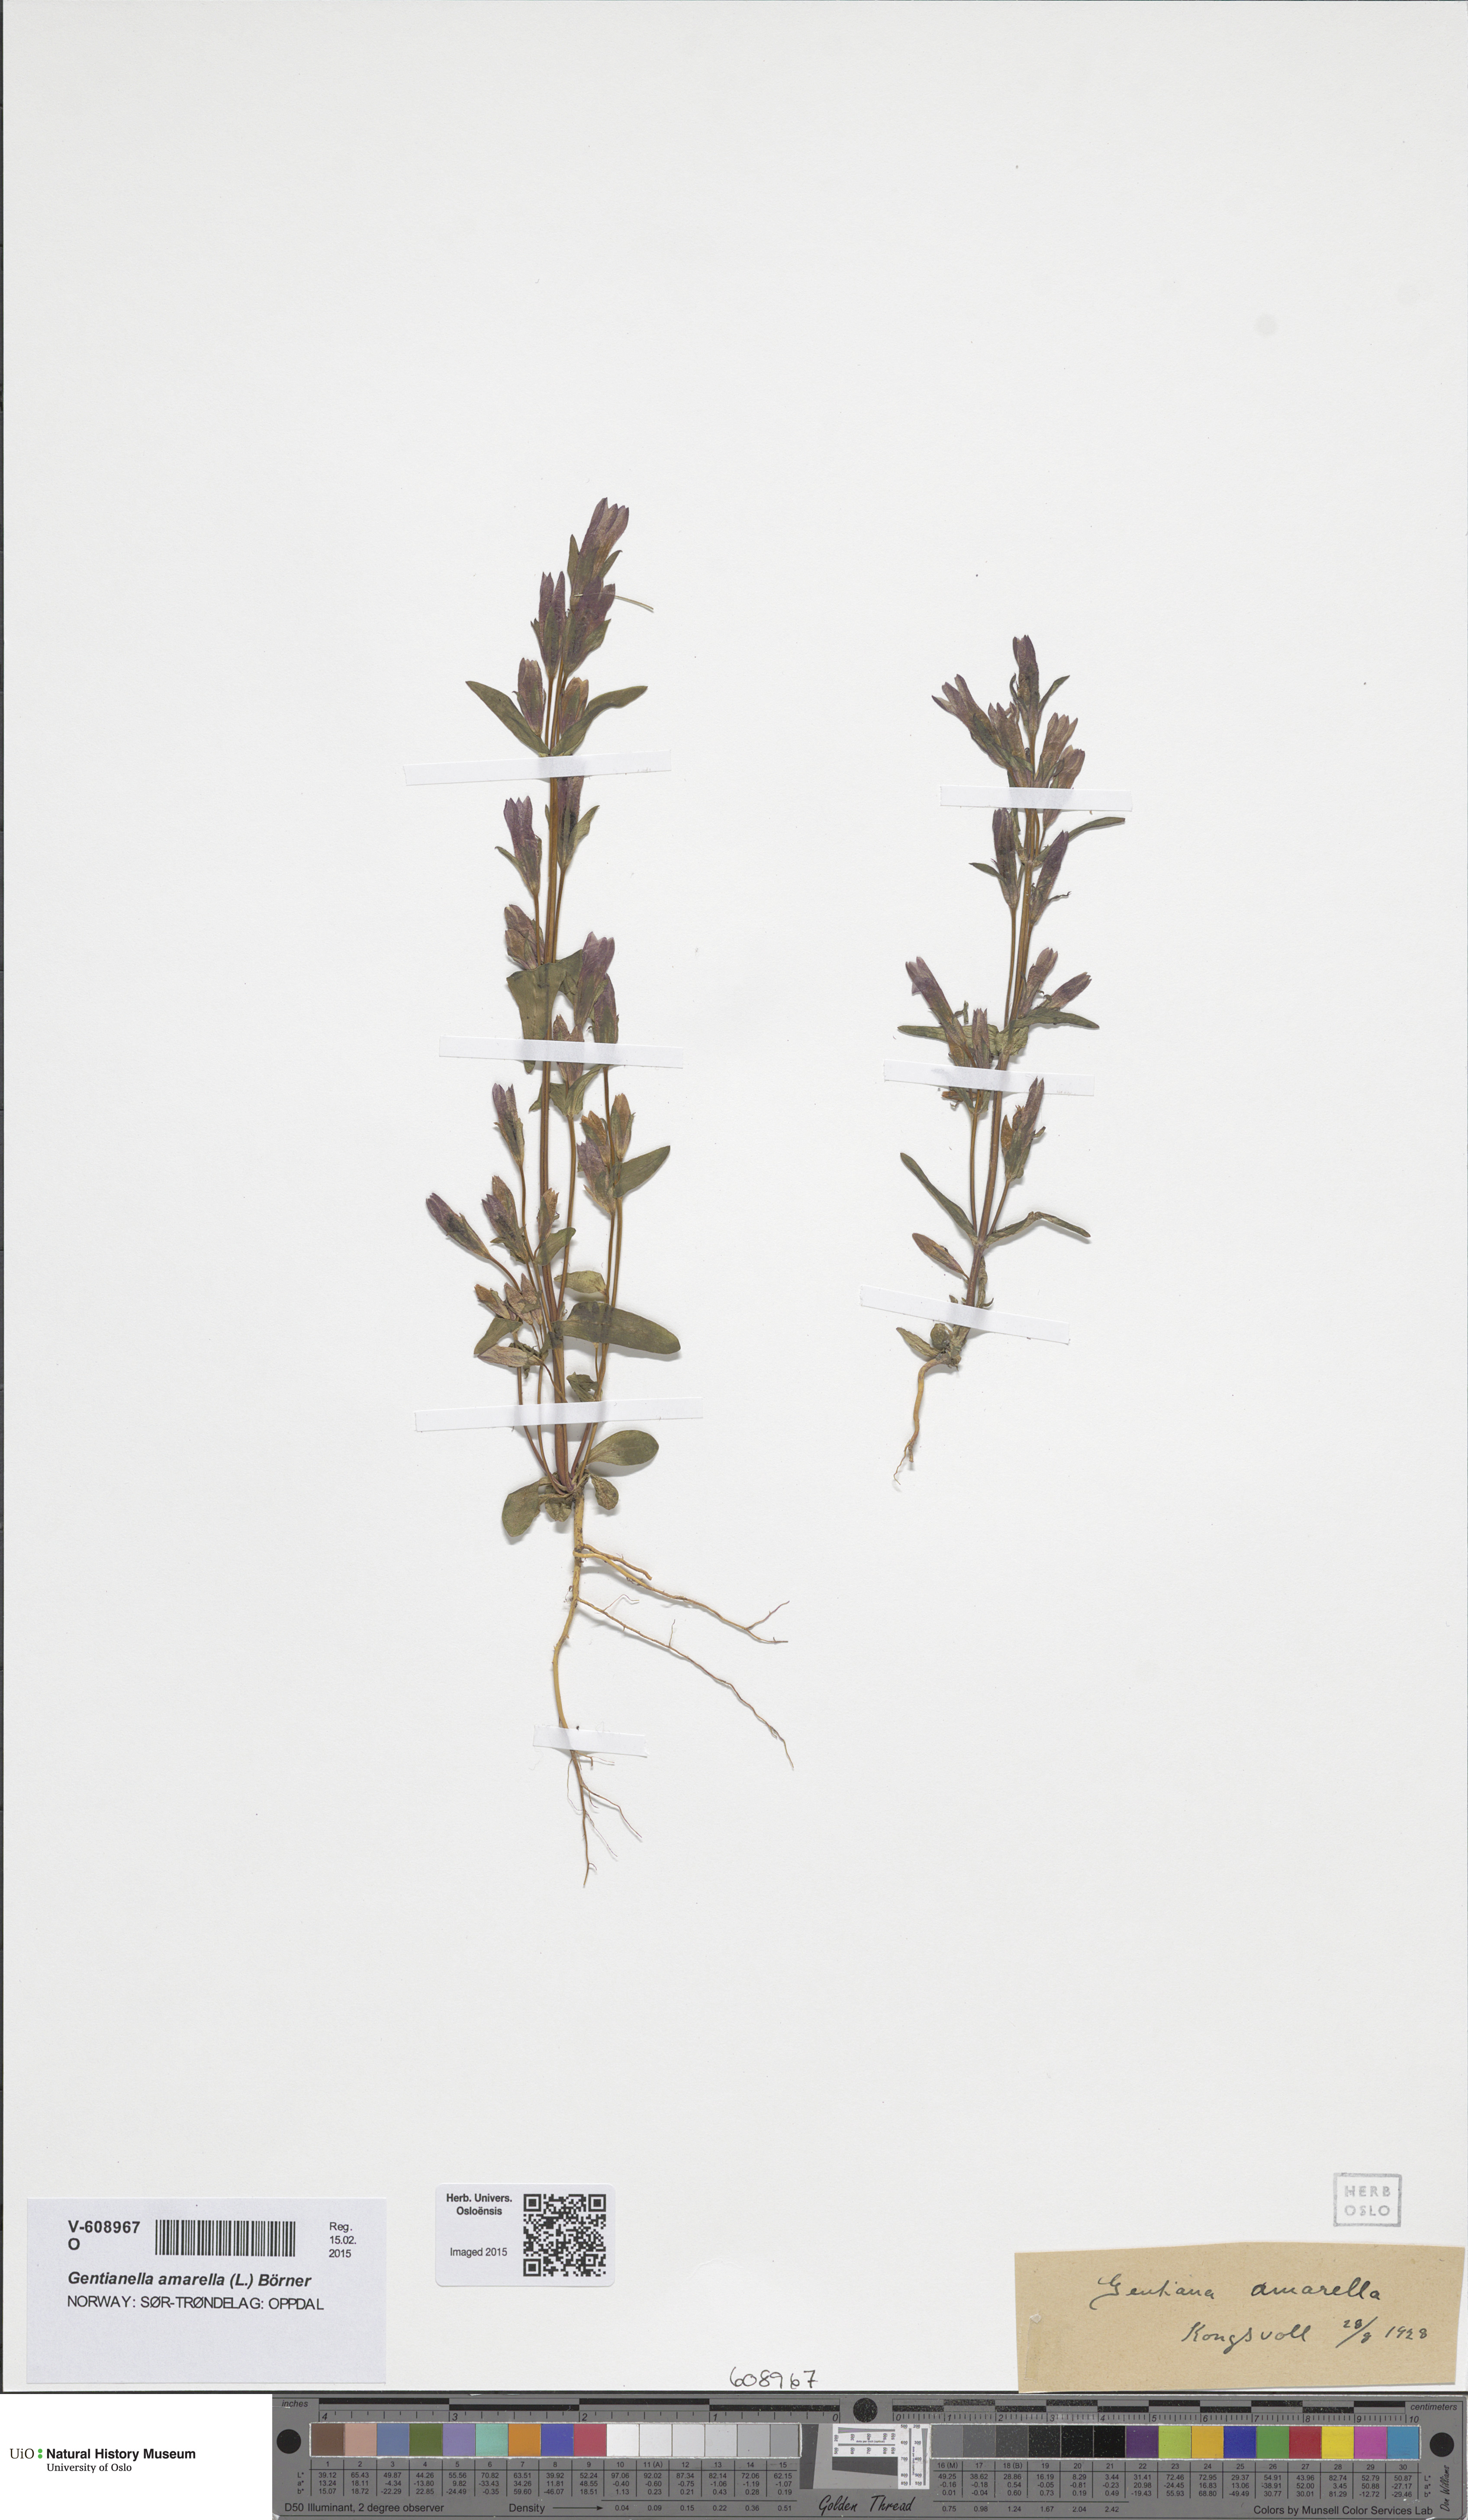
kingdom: Plantae
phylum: Tracheophyta
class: Magnoliopsida
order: Gentianales
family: Gentianaceae
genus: Gentianella
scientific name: Gentianella amarella
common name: Autumn gentian
